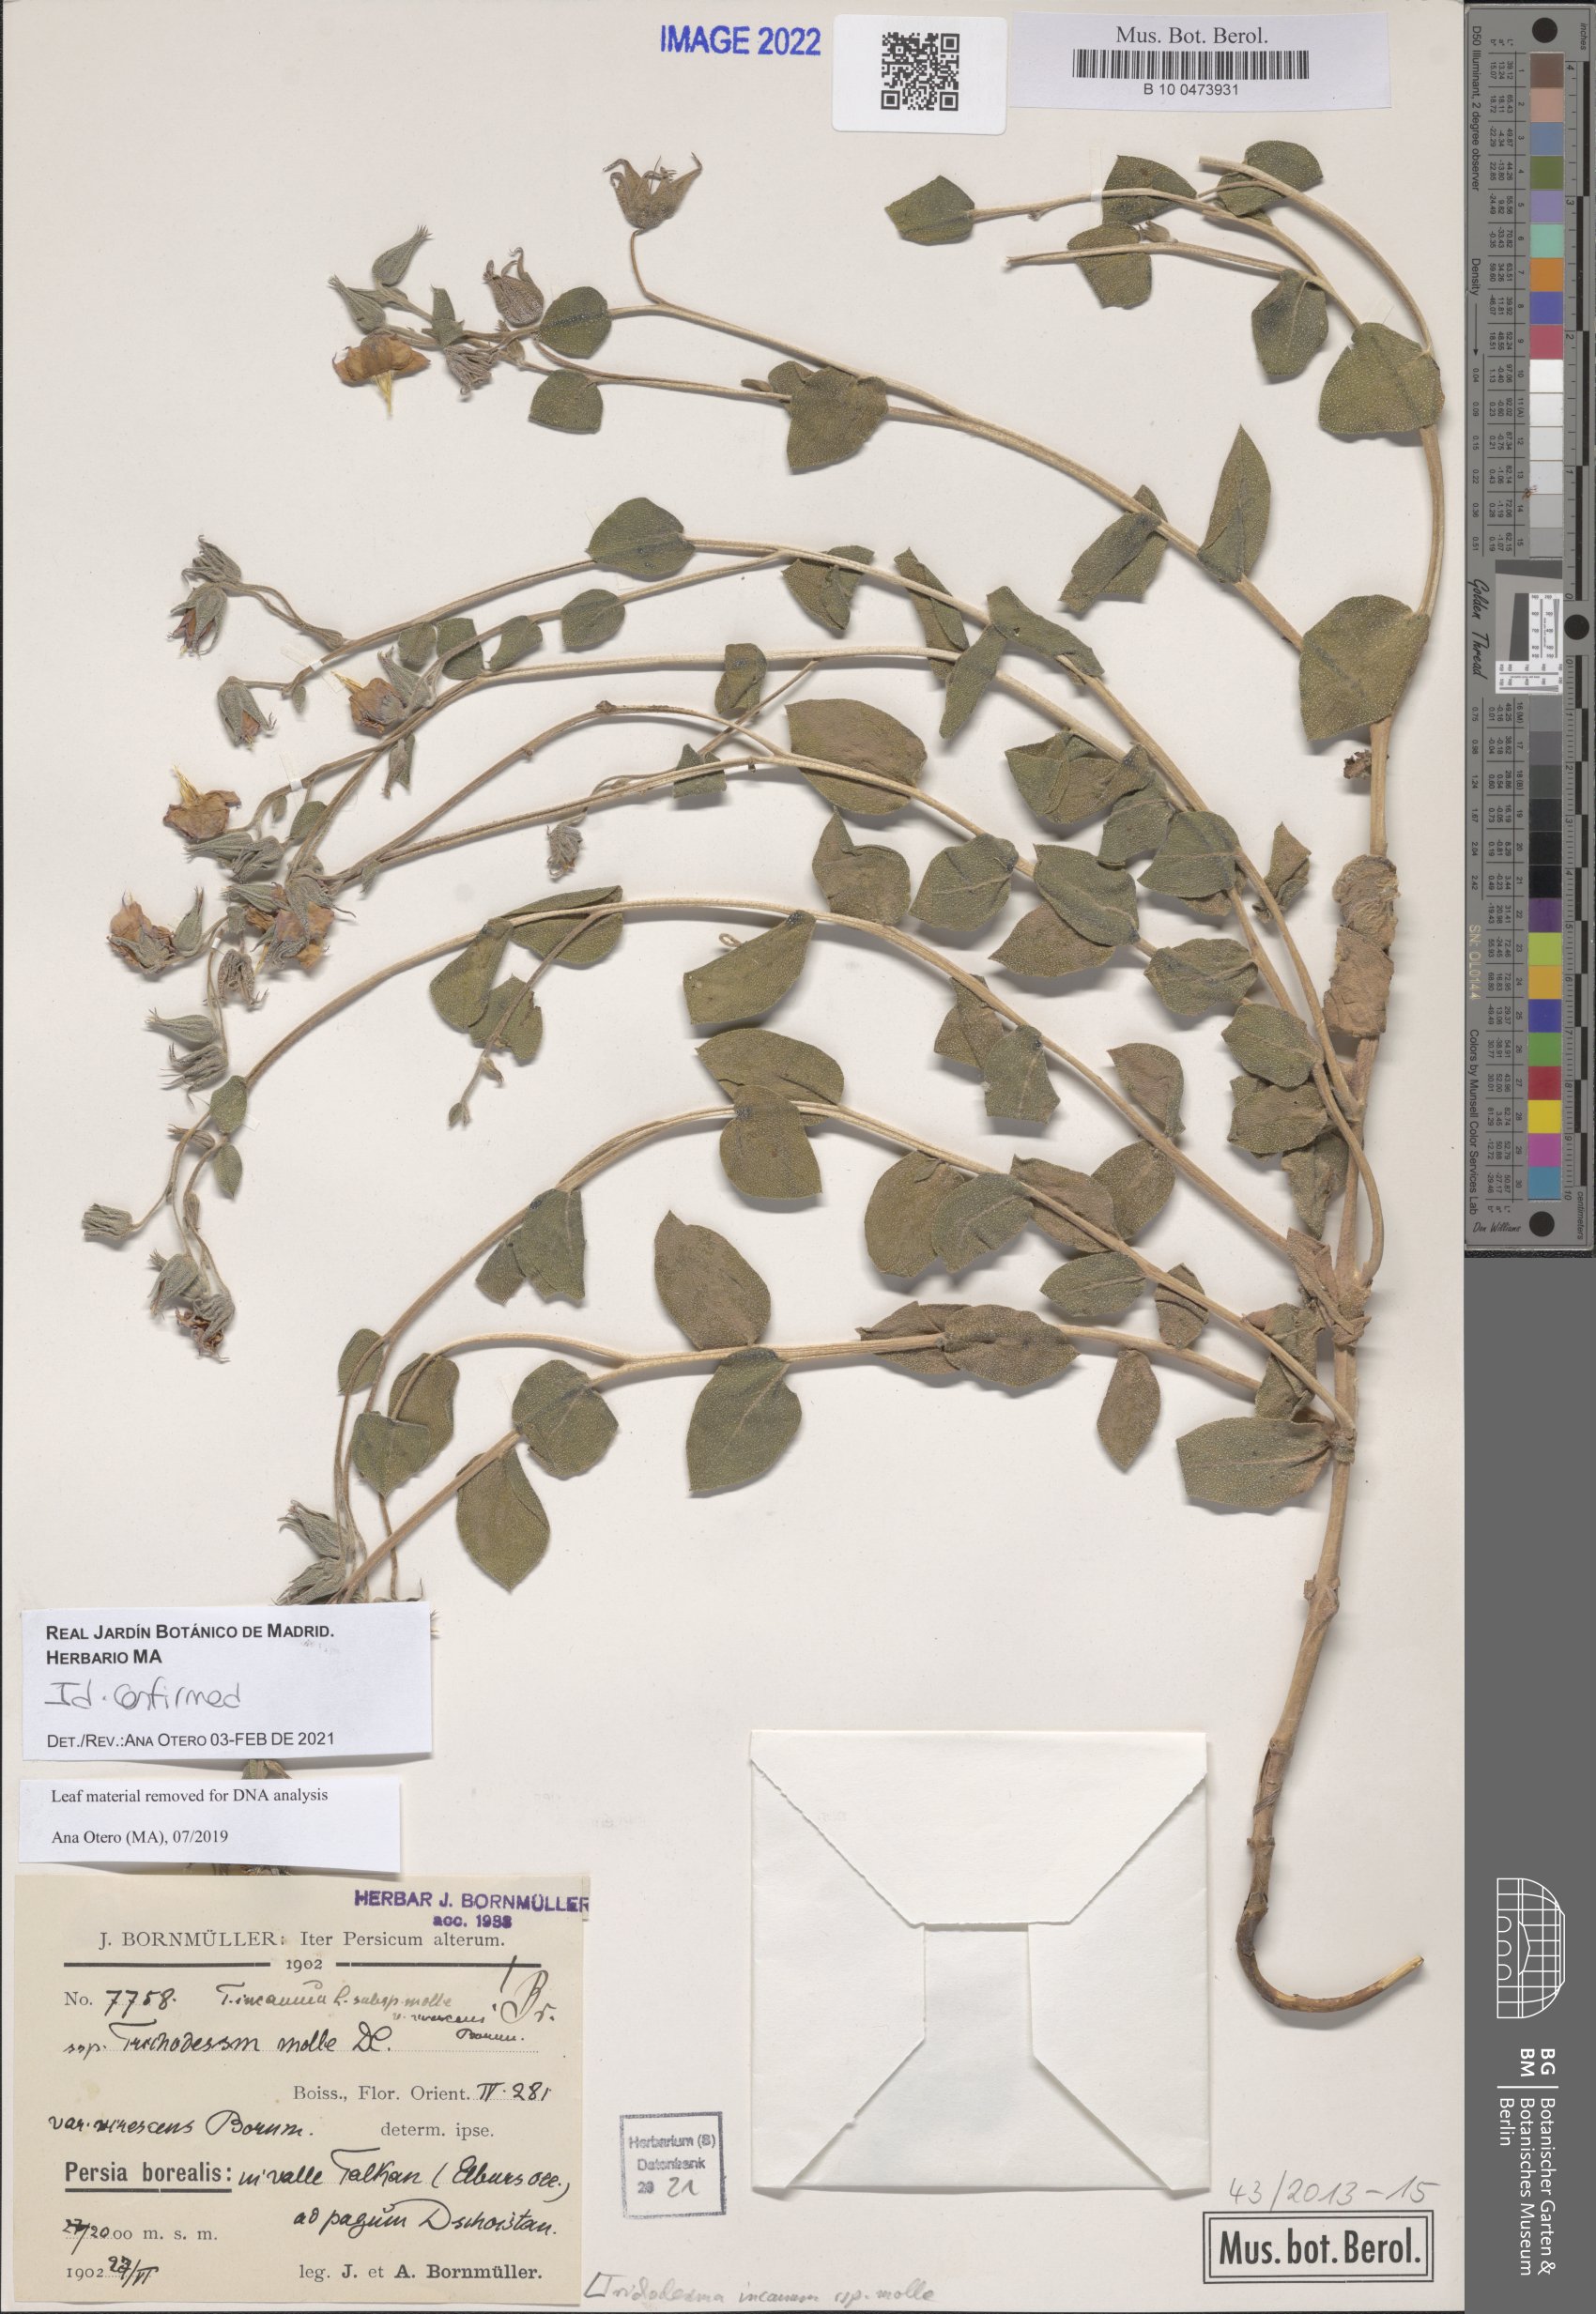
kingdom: Plantae
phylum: Tracheophyta
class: Magnoliopsida
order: Boraginales
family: Boraginaceae
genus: Trichodesma
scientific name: Trichodesma incanum
